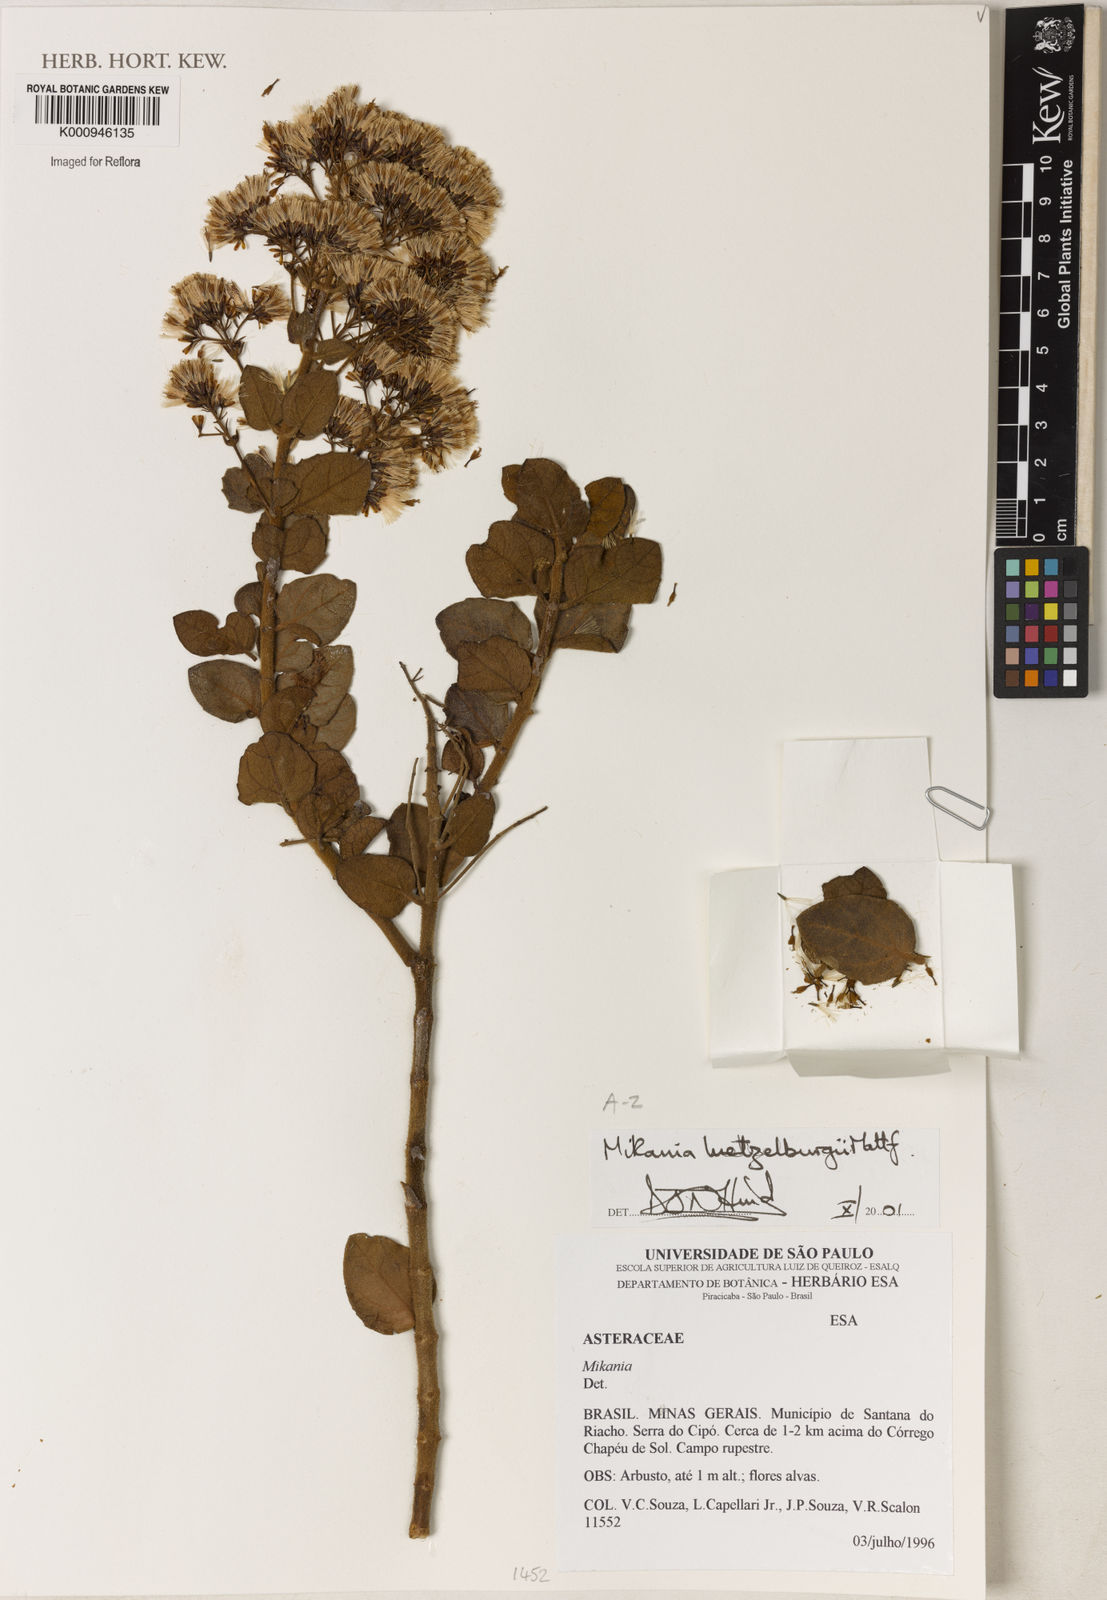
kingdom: Plantae
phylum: Tracheophyta
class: Magnoliopsida
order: Asterales
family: Asteraceae
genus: Mikania
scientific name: Mikania luetzelburgii
